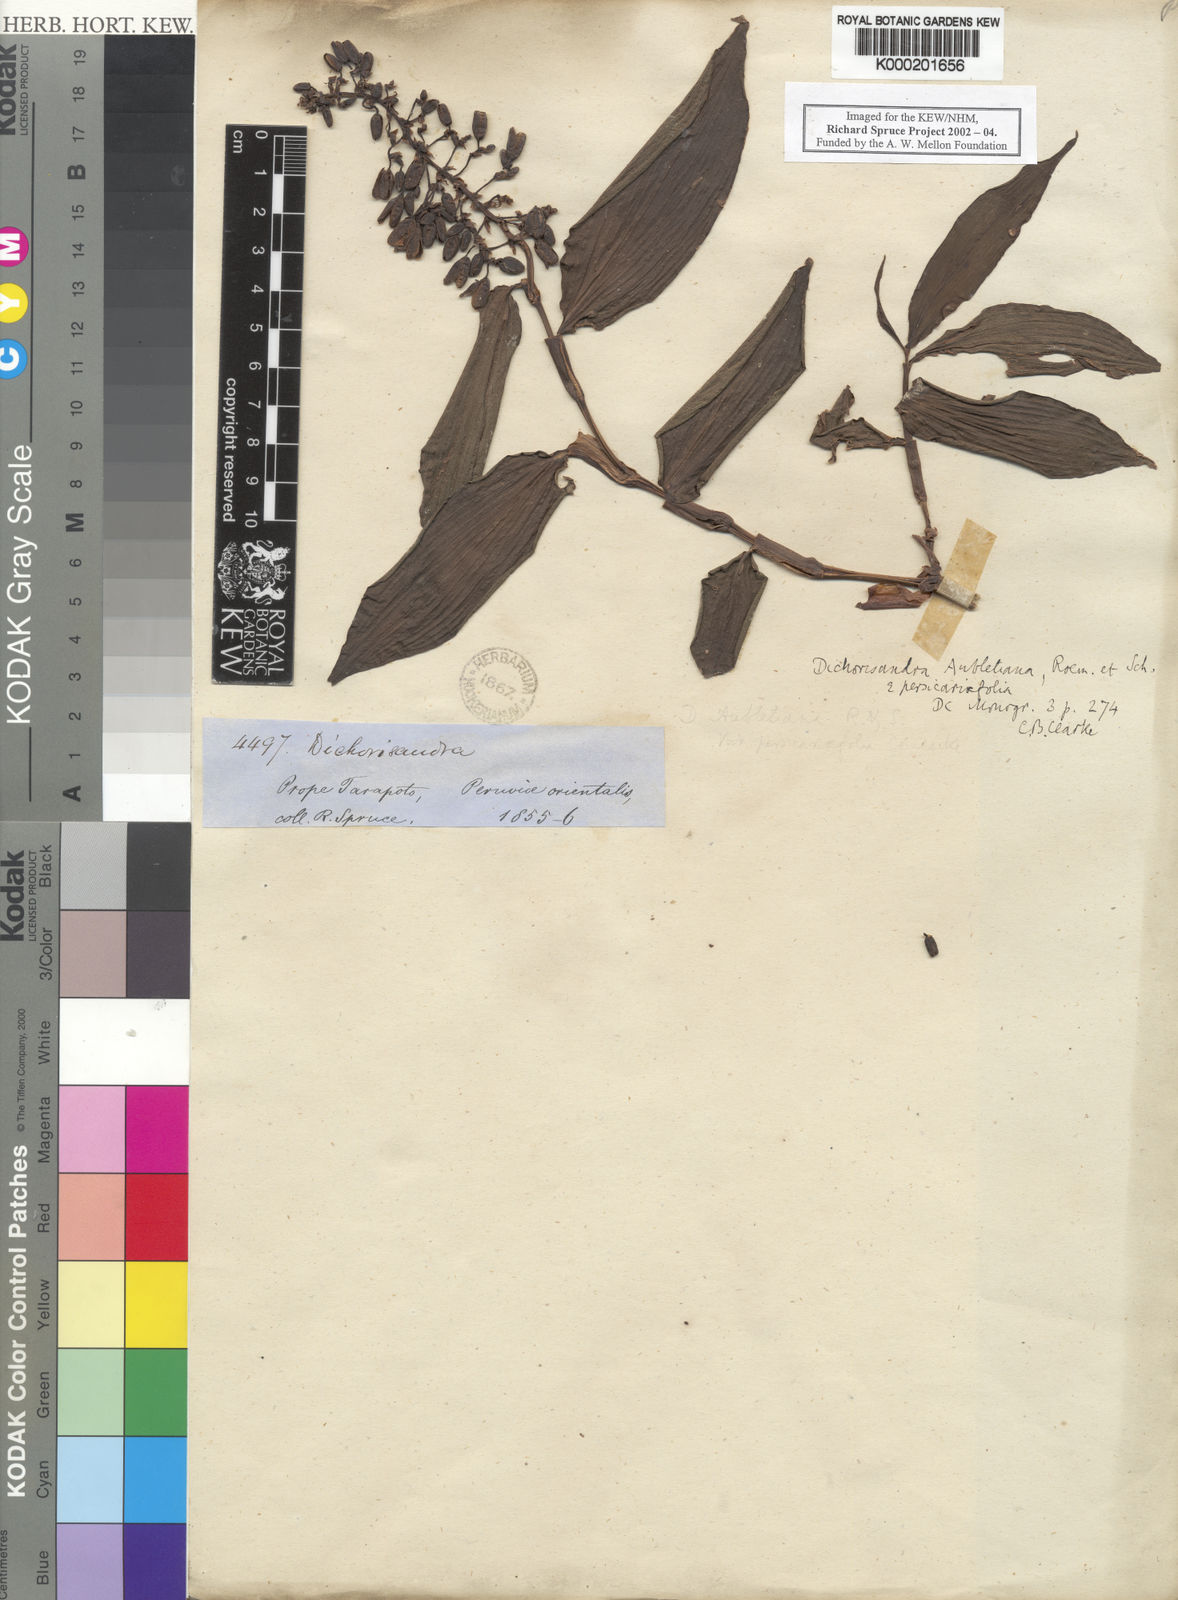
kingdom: Plantae
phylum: Tracheophyta
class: Liliopsida
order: Commelinales
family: Commelinaceae
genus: Dichorisandra
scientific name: Dichorisandra hexandra
